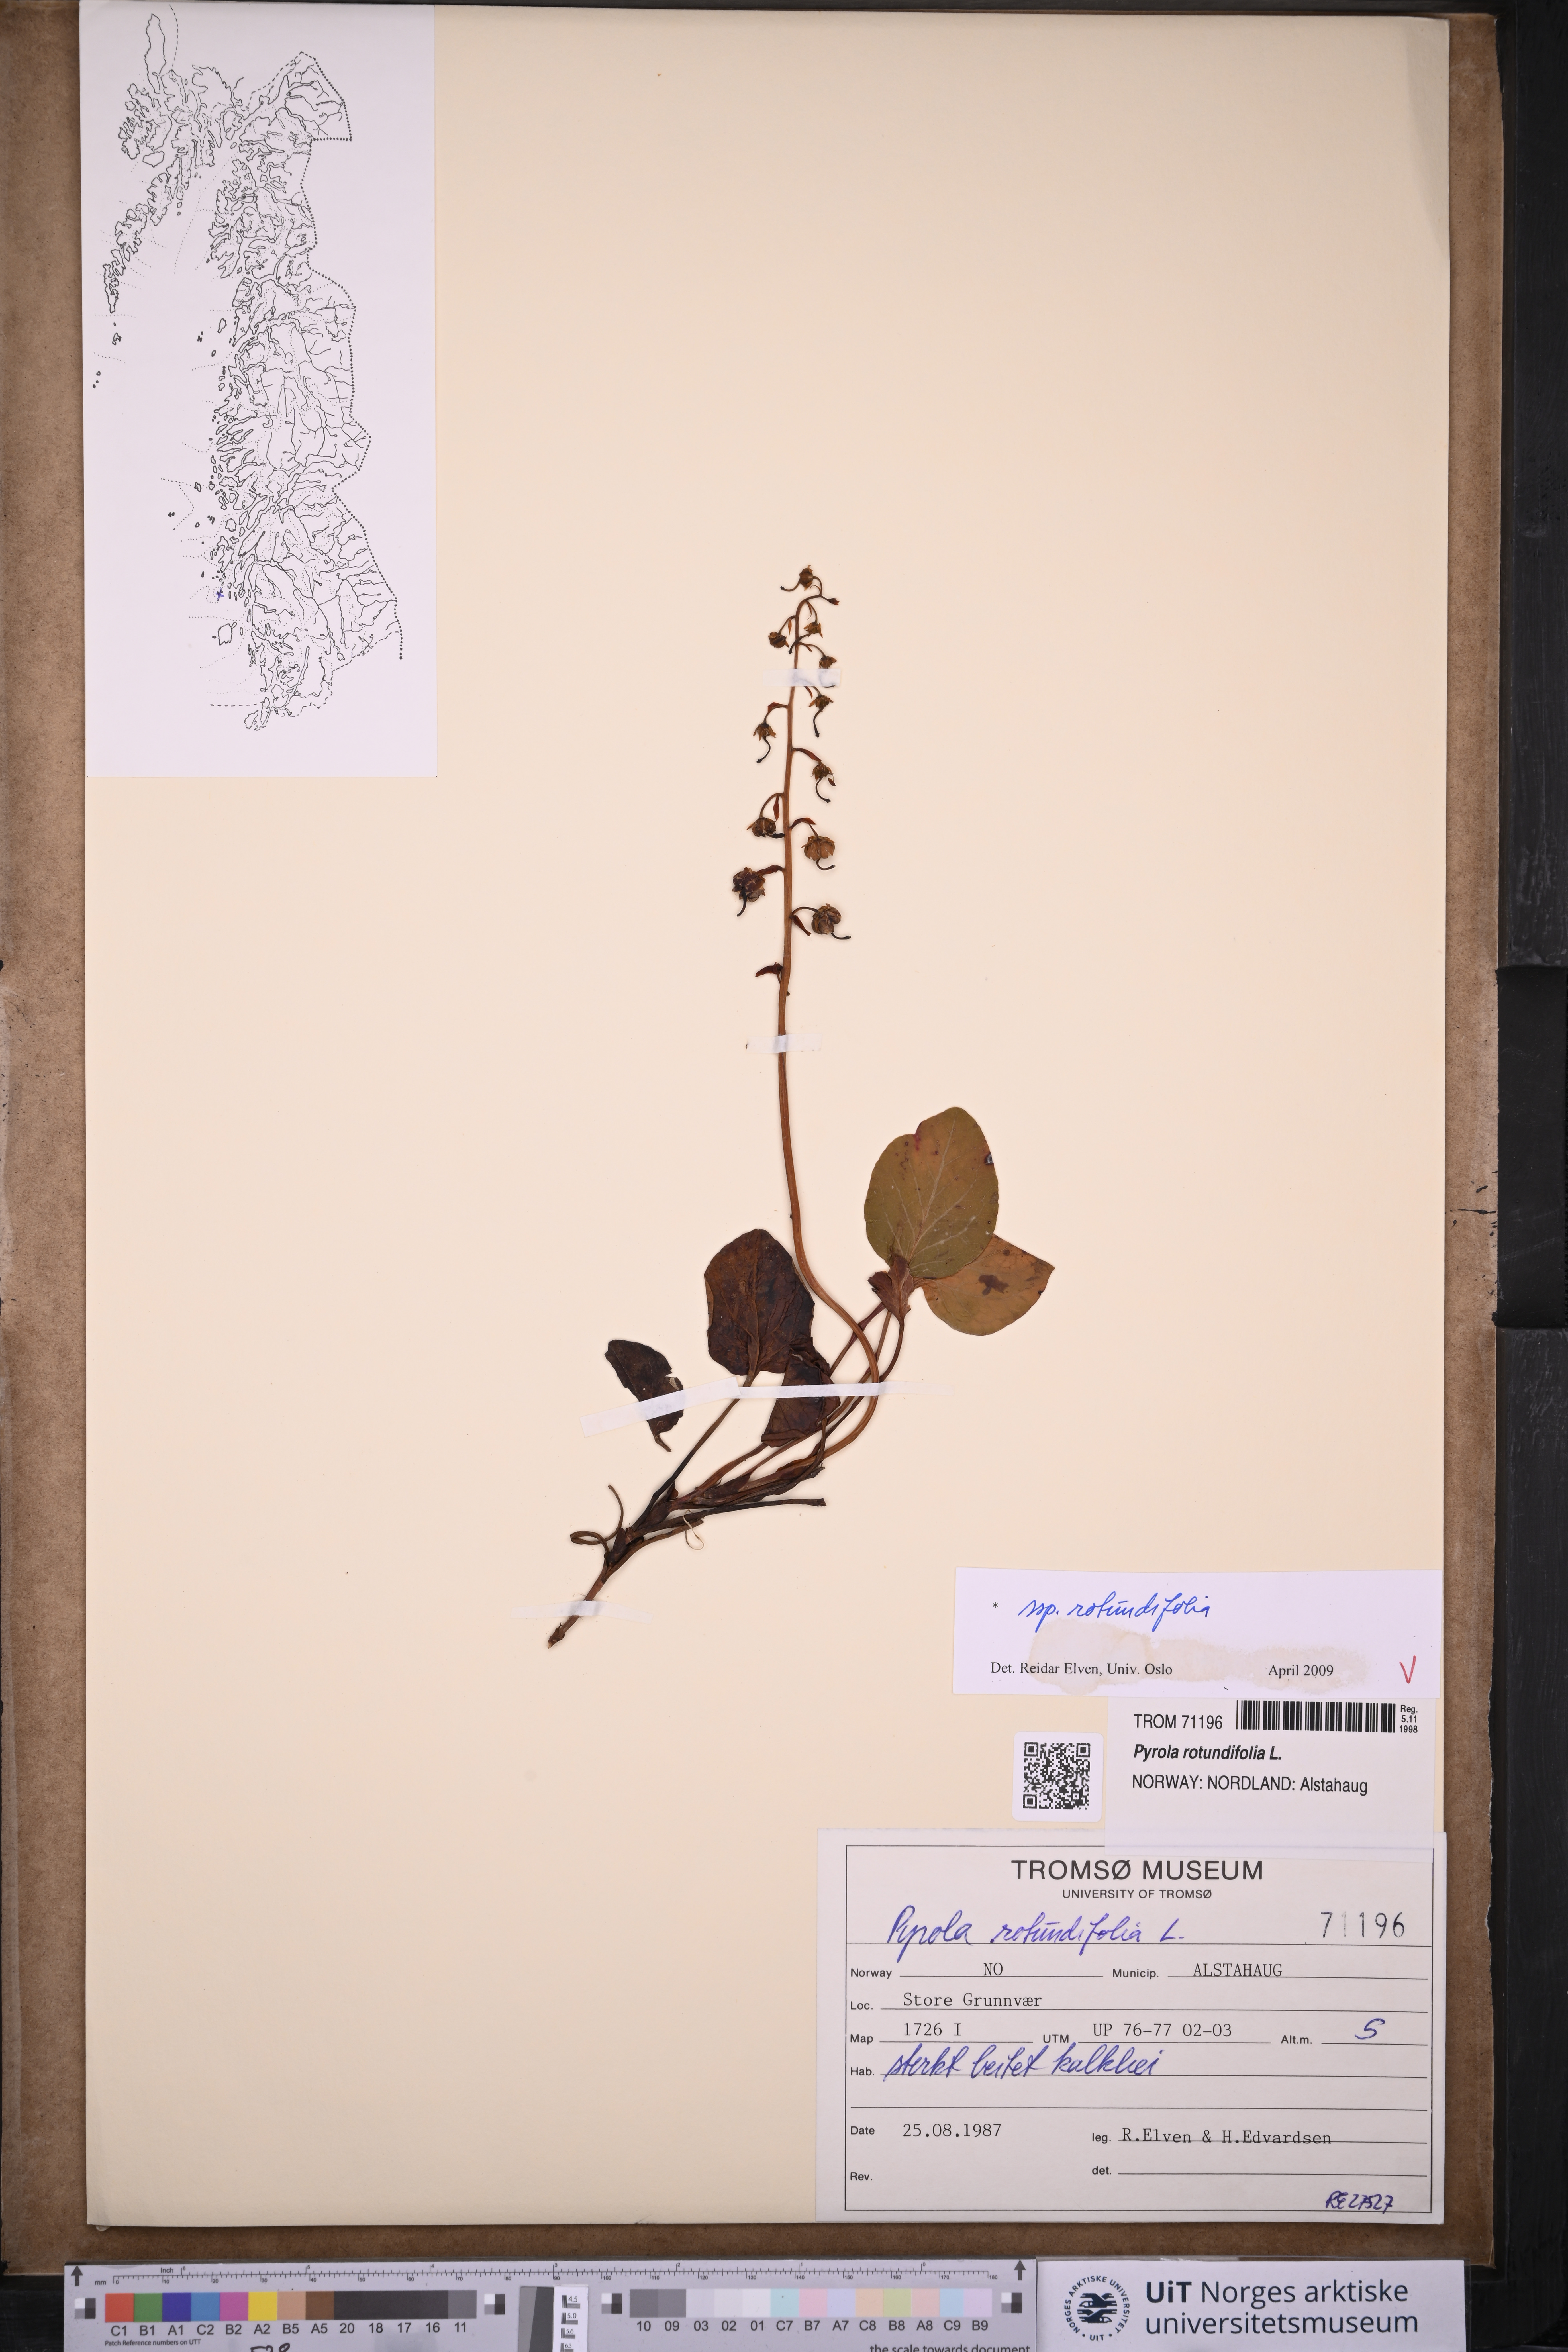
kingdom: Plantae
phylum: Tracheophyta
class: Magnoliopsida
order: Ericales
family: Ericaceae
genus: Pyrola
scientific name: Pyrola rotundifolia
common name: Round-leaved wintergreen
